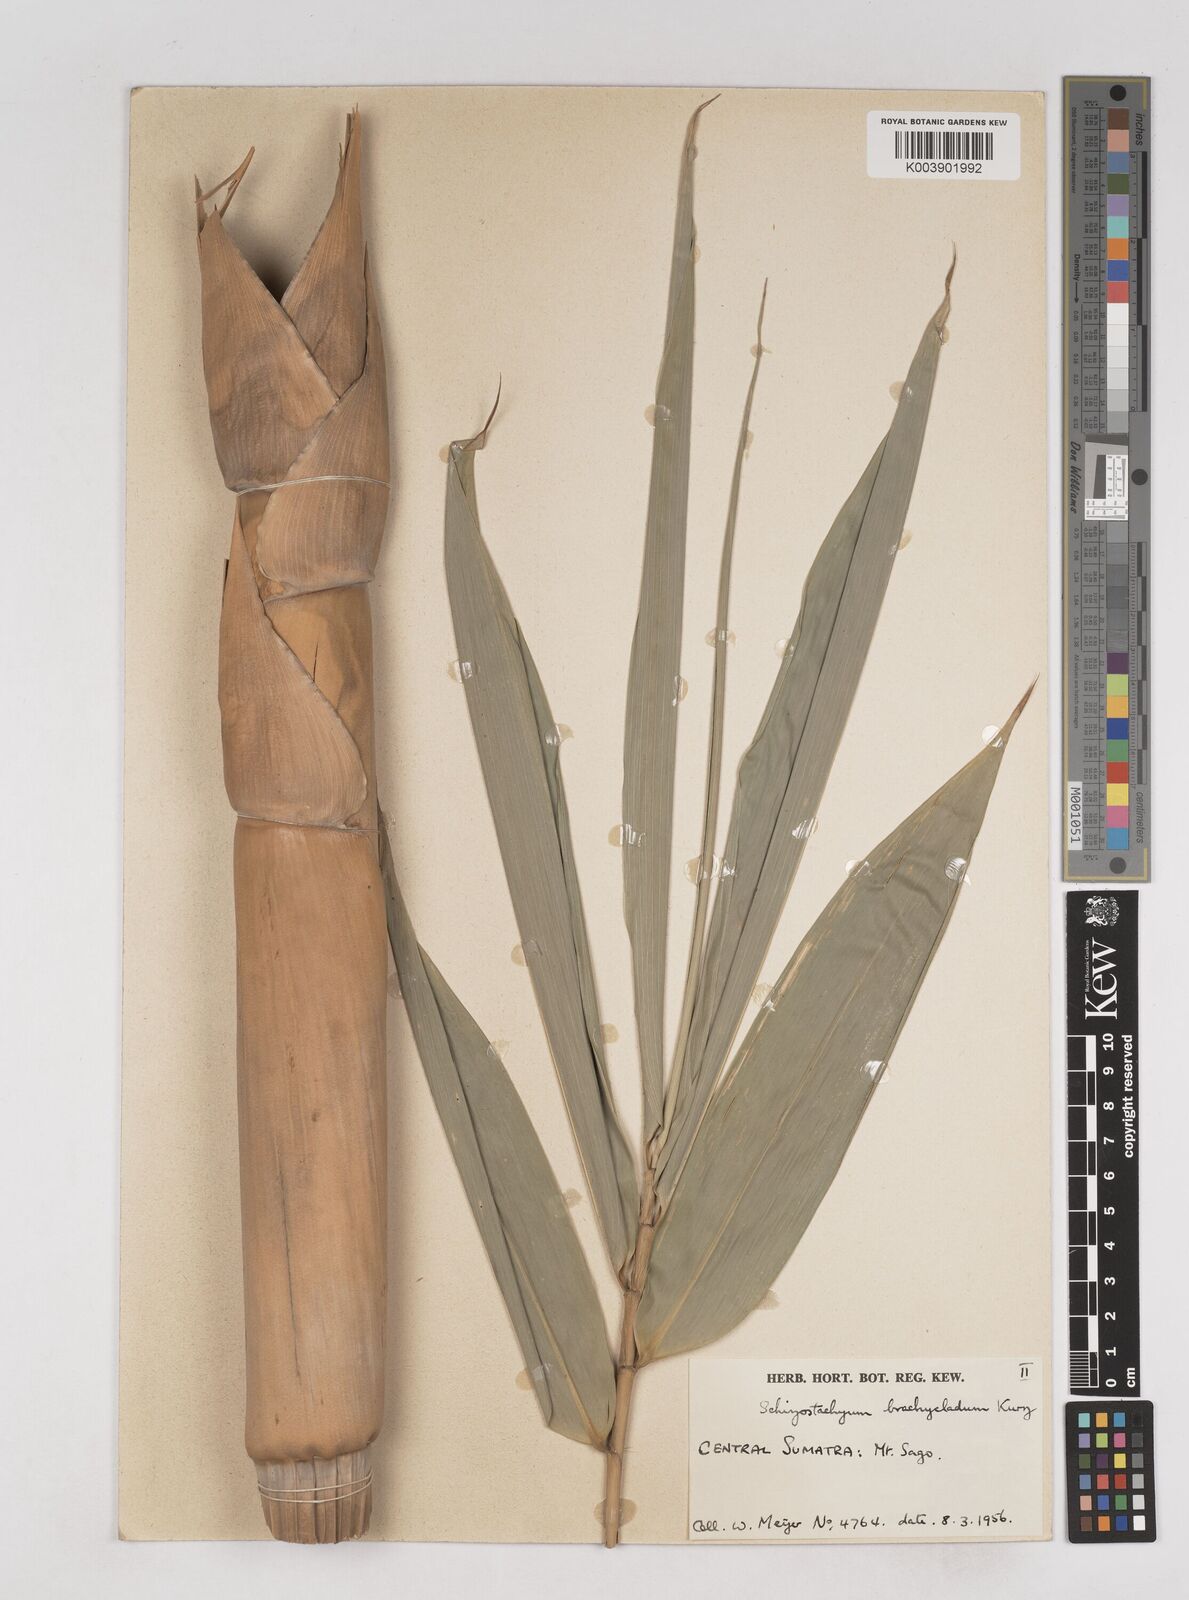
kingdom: Plantae
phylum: Tracheophyta
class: Liliopsida
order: Poales
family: Poaceae
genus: Schizostachyum
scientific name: Schizostachyum brachycladum
